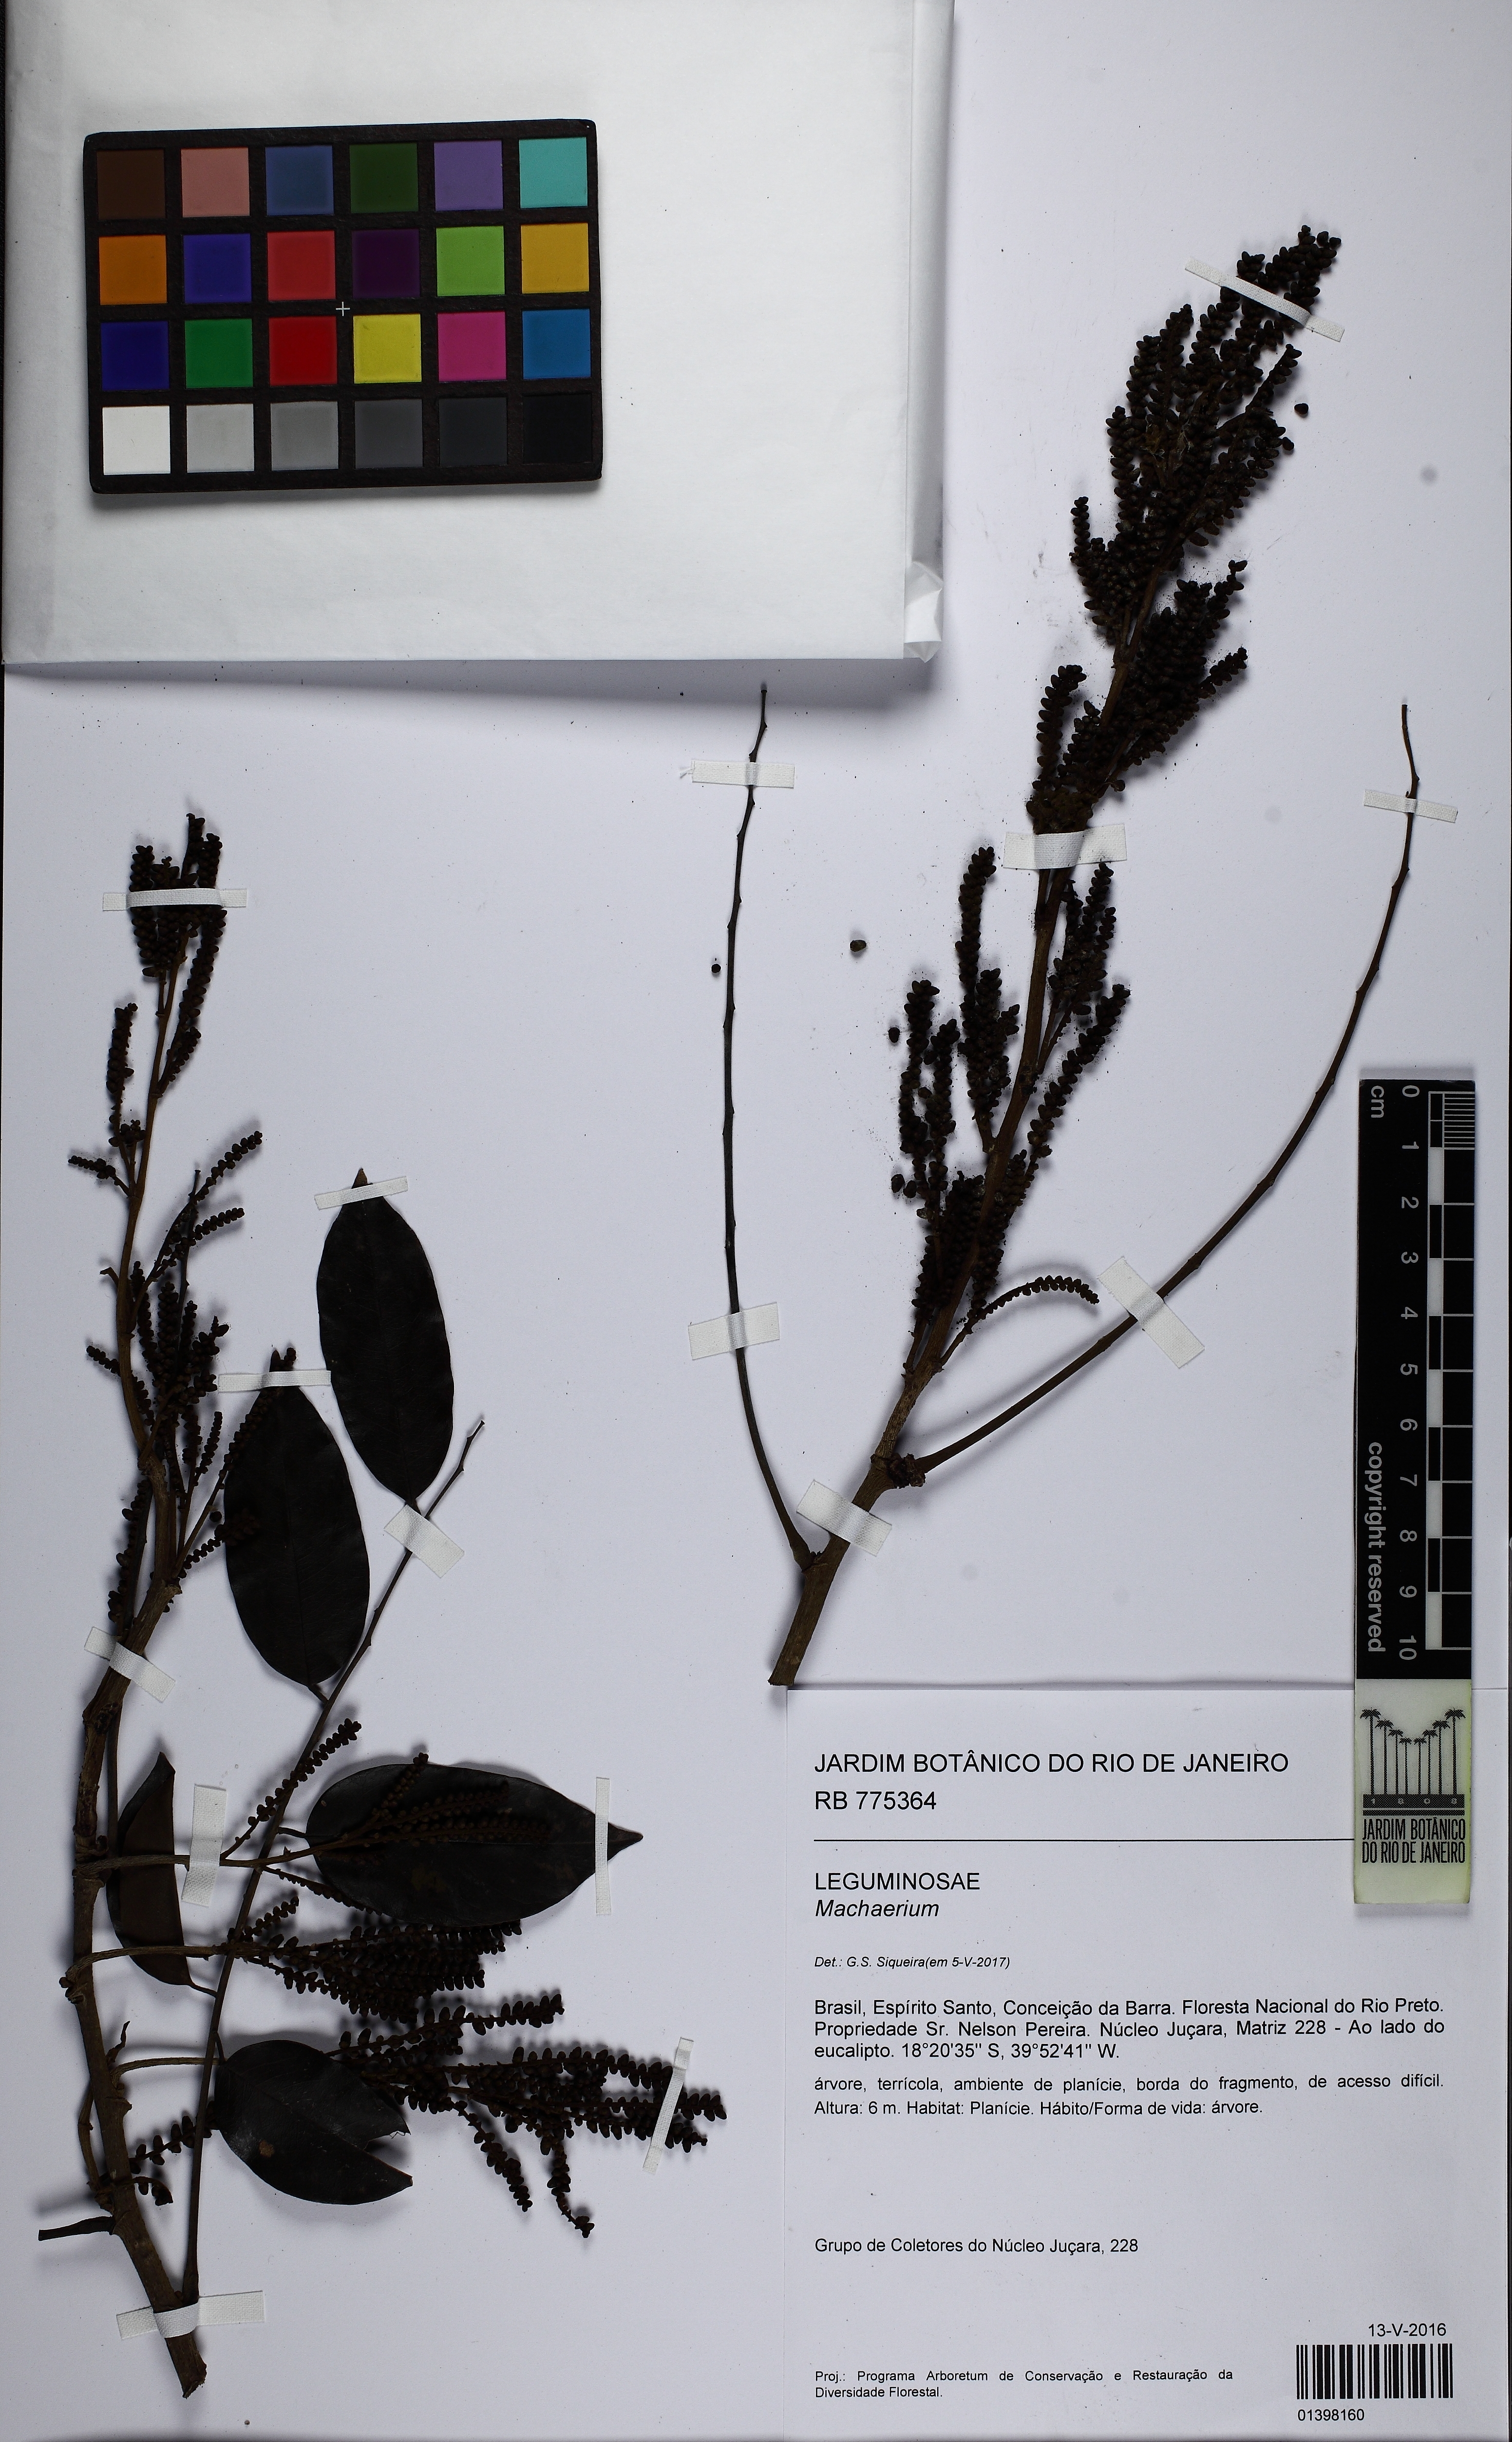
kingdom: Plantae
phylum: Tracheophyta
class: Magnoliopsida
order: Fabales
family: Fabaceae
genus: Machaerium
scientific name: Machaerium salzmannii
